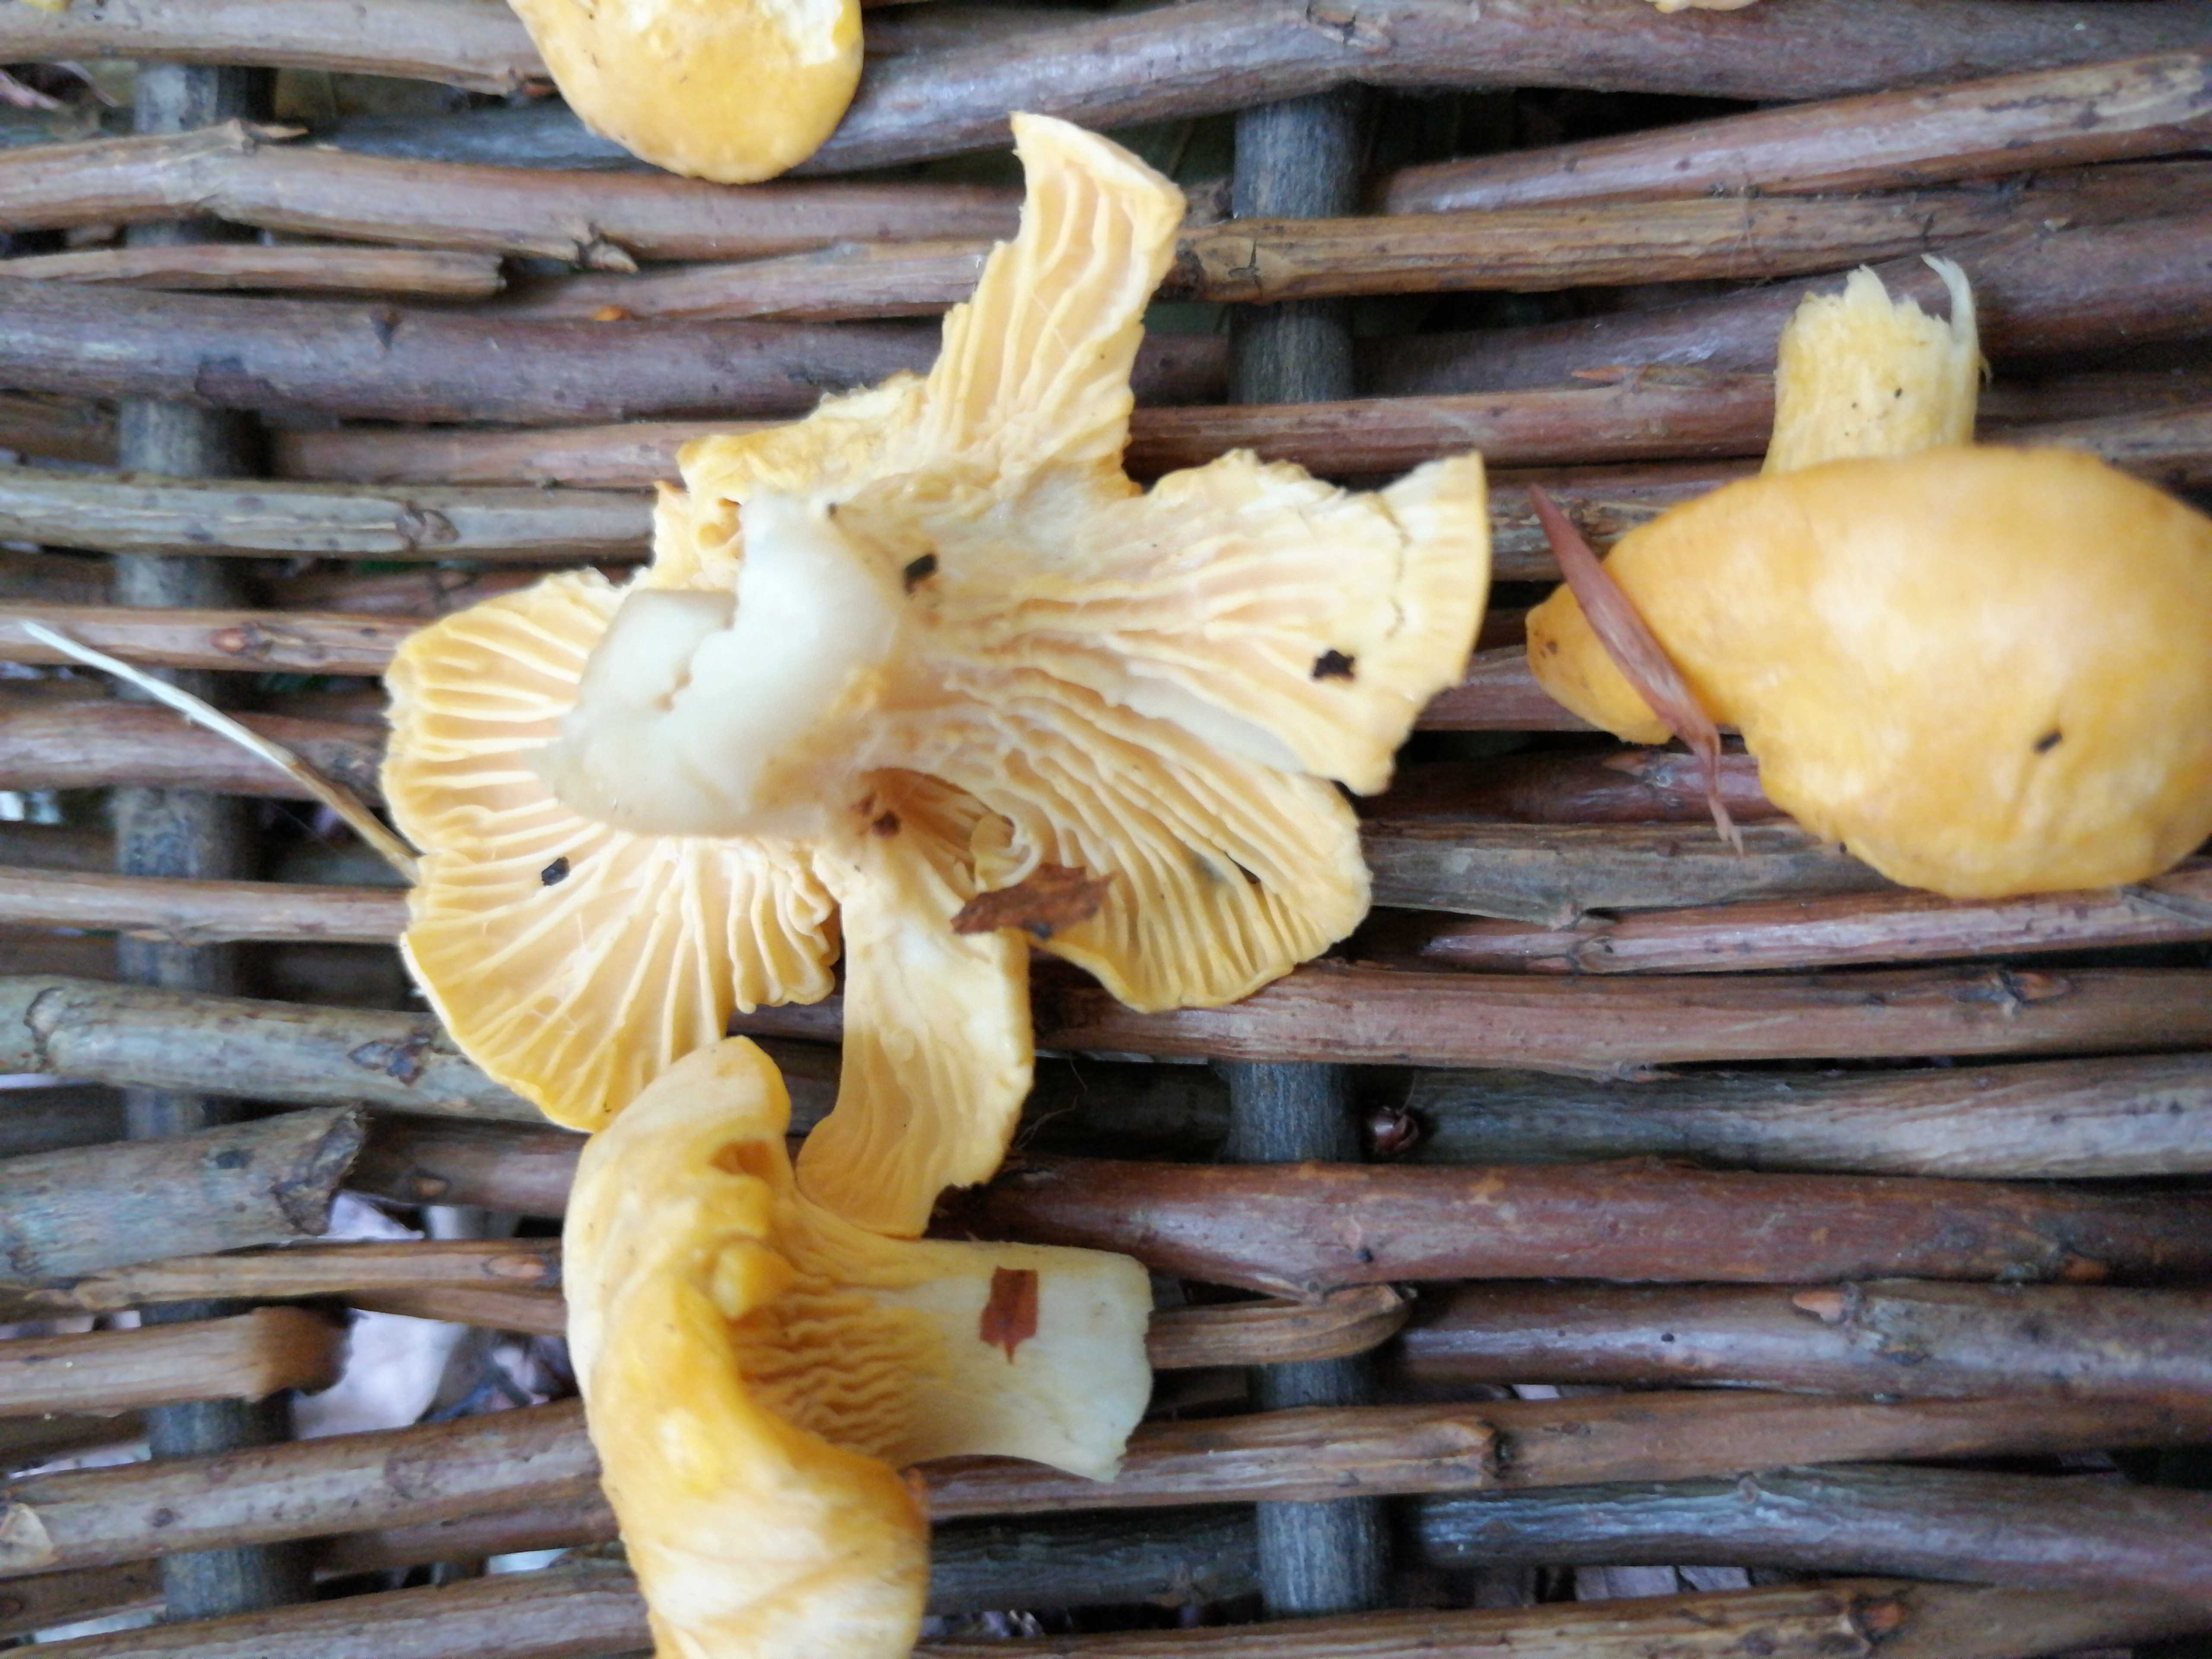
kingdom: Fungi
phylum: Basidiomycota
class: Agaricomycetes
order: Cantharellales
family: Hydnaceae
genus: Cantharellus
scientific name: Cantharellus cibarius
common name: almindelig kantarel
